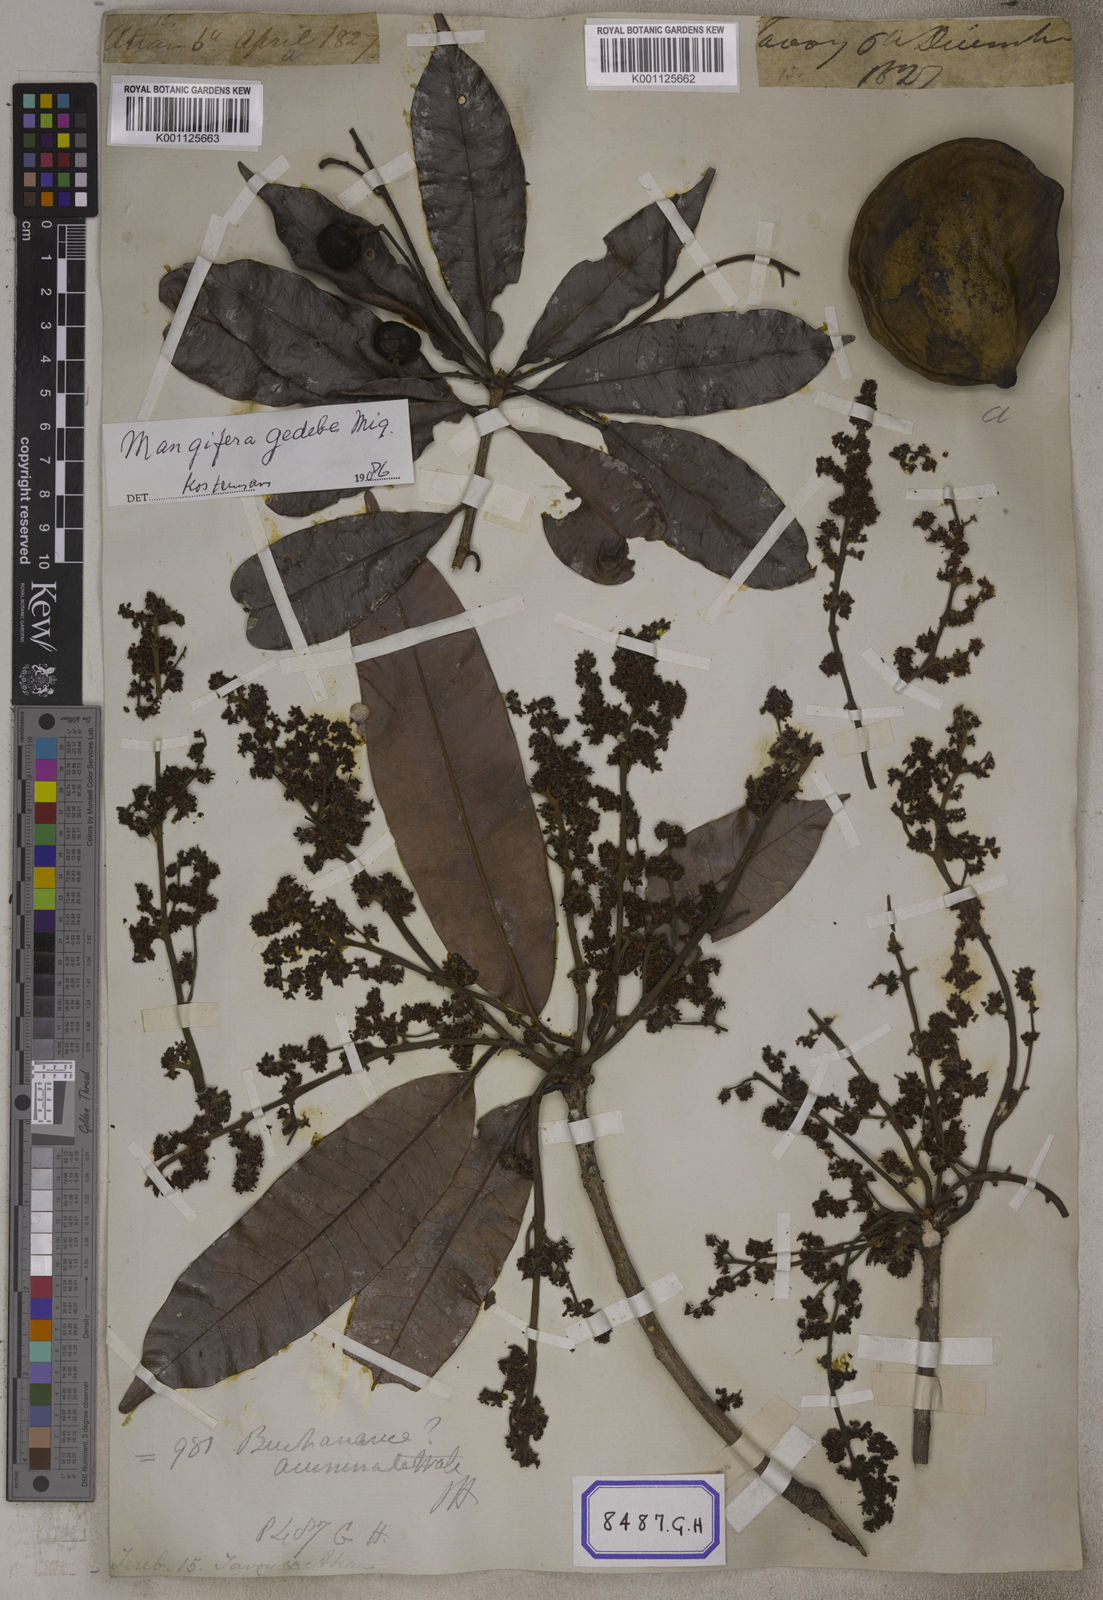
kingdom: Plantae
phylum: Tracheophyta
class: Magnoliopsida
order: Sapindales
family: Anacardiaceae
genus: Mangifera
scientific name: Mangifera indica
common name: Mango
